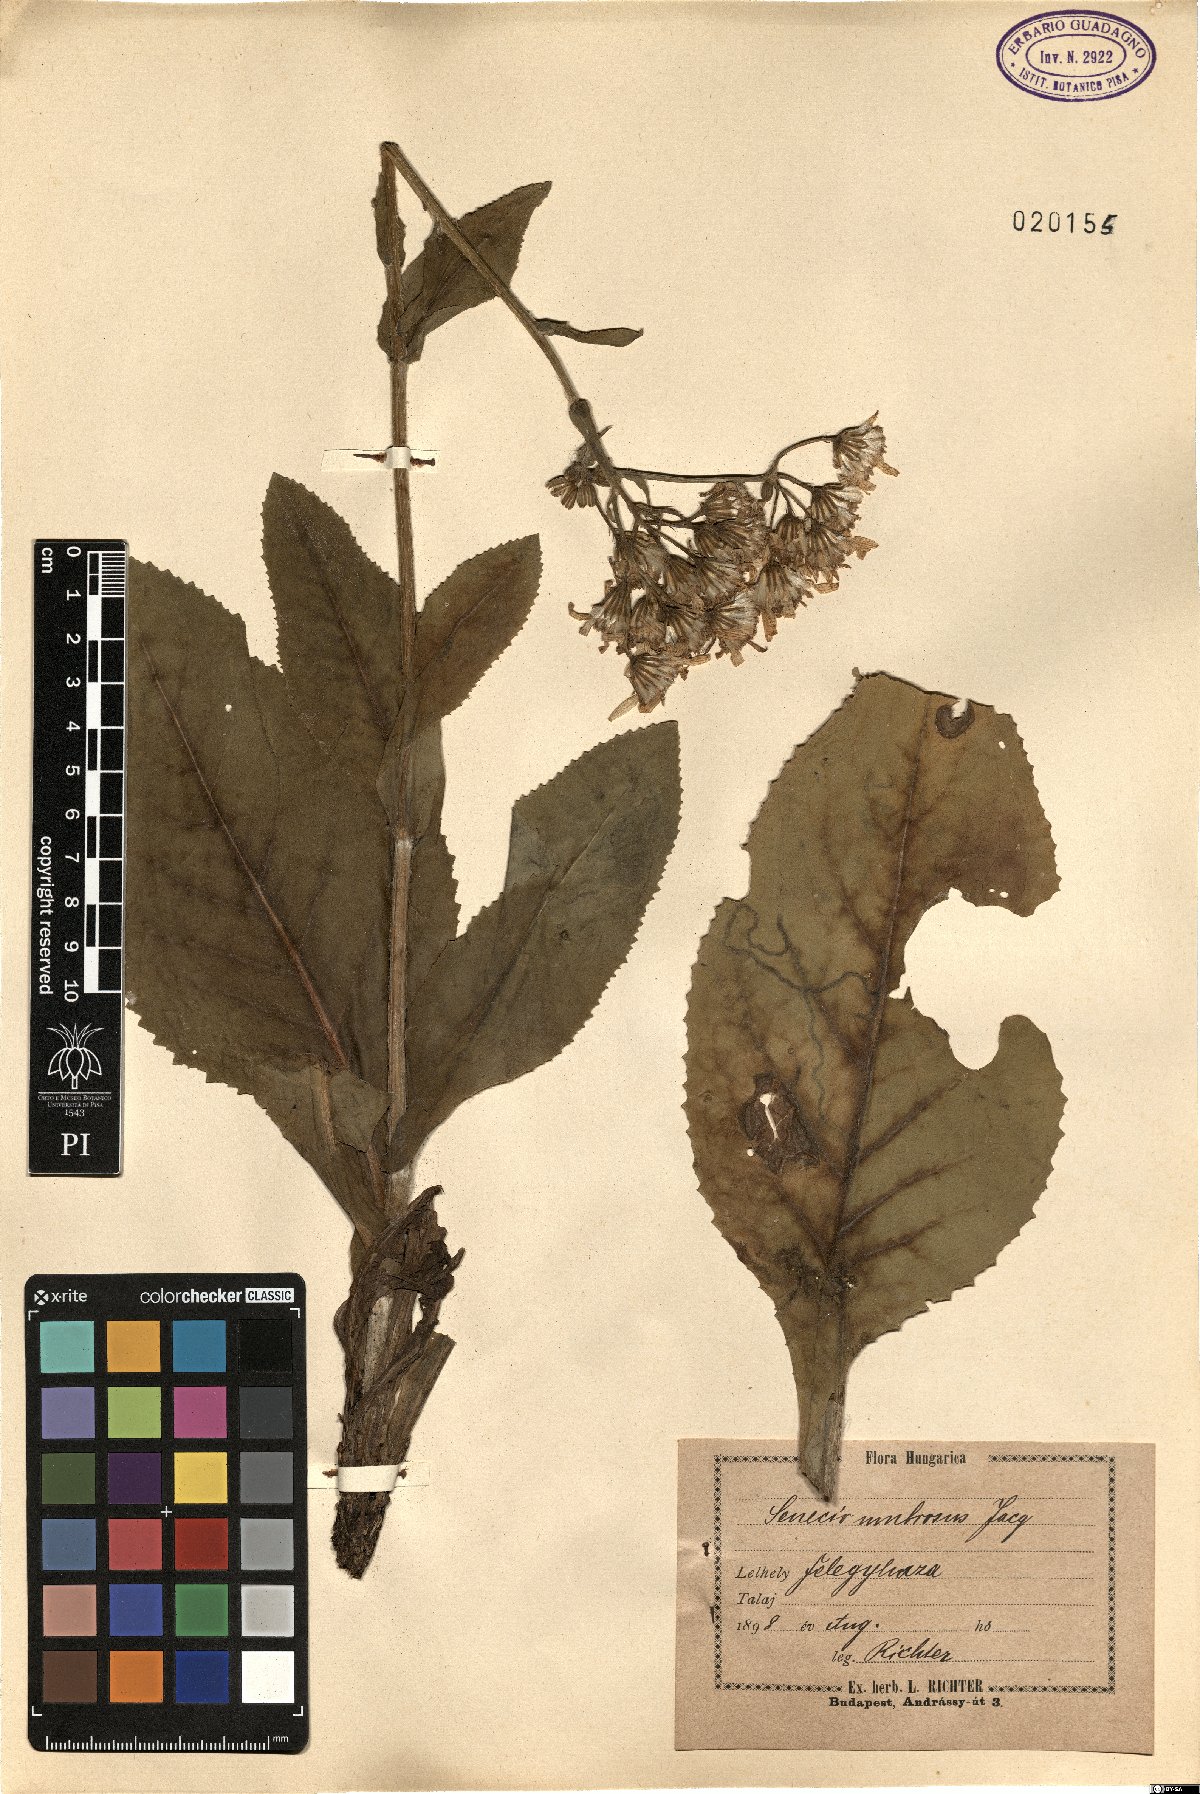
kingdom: Plantae
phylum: Tracheophyta
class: Magnoliopsida
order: Asterales
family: Asteraceae
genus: Senecio
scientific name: Senecio umbrosus
